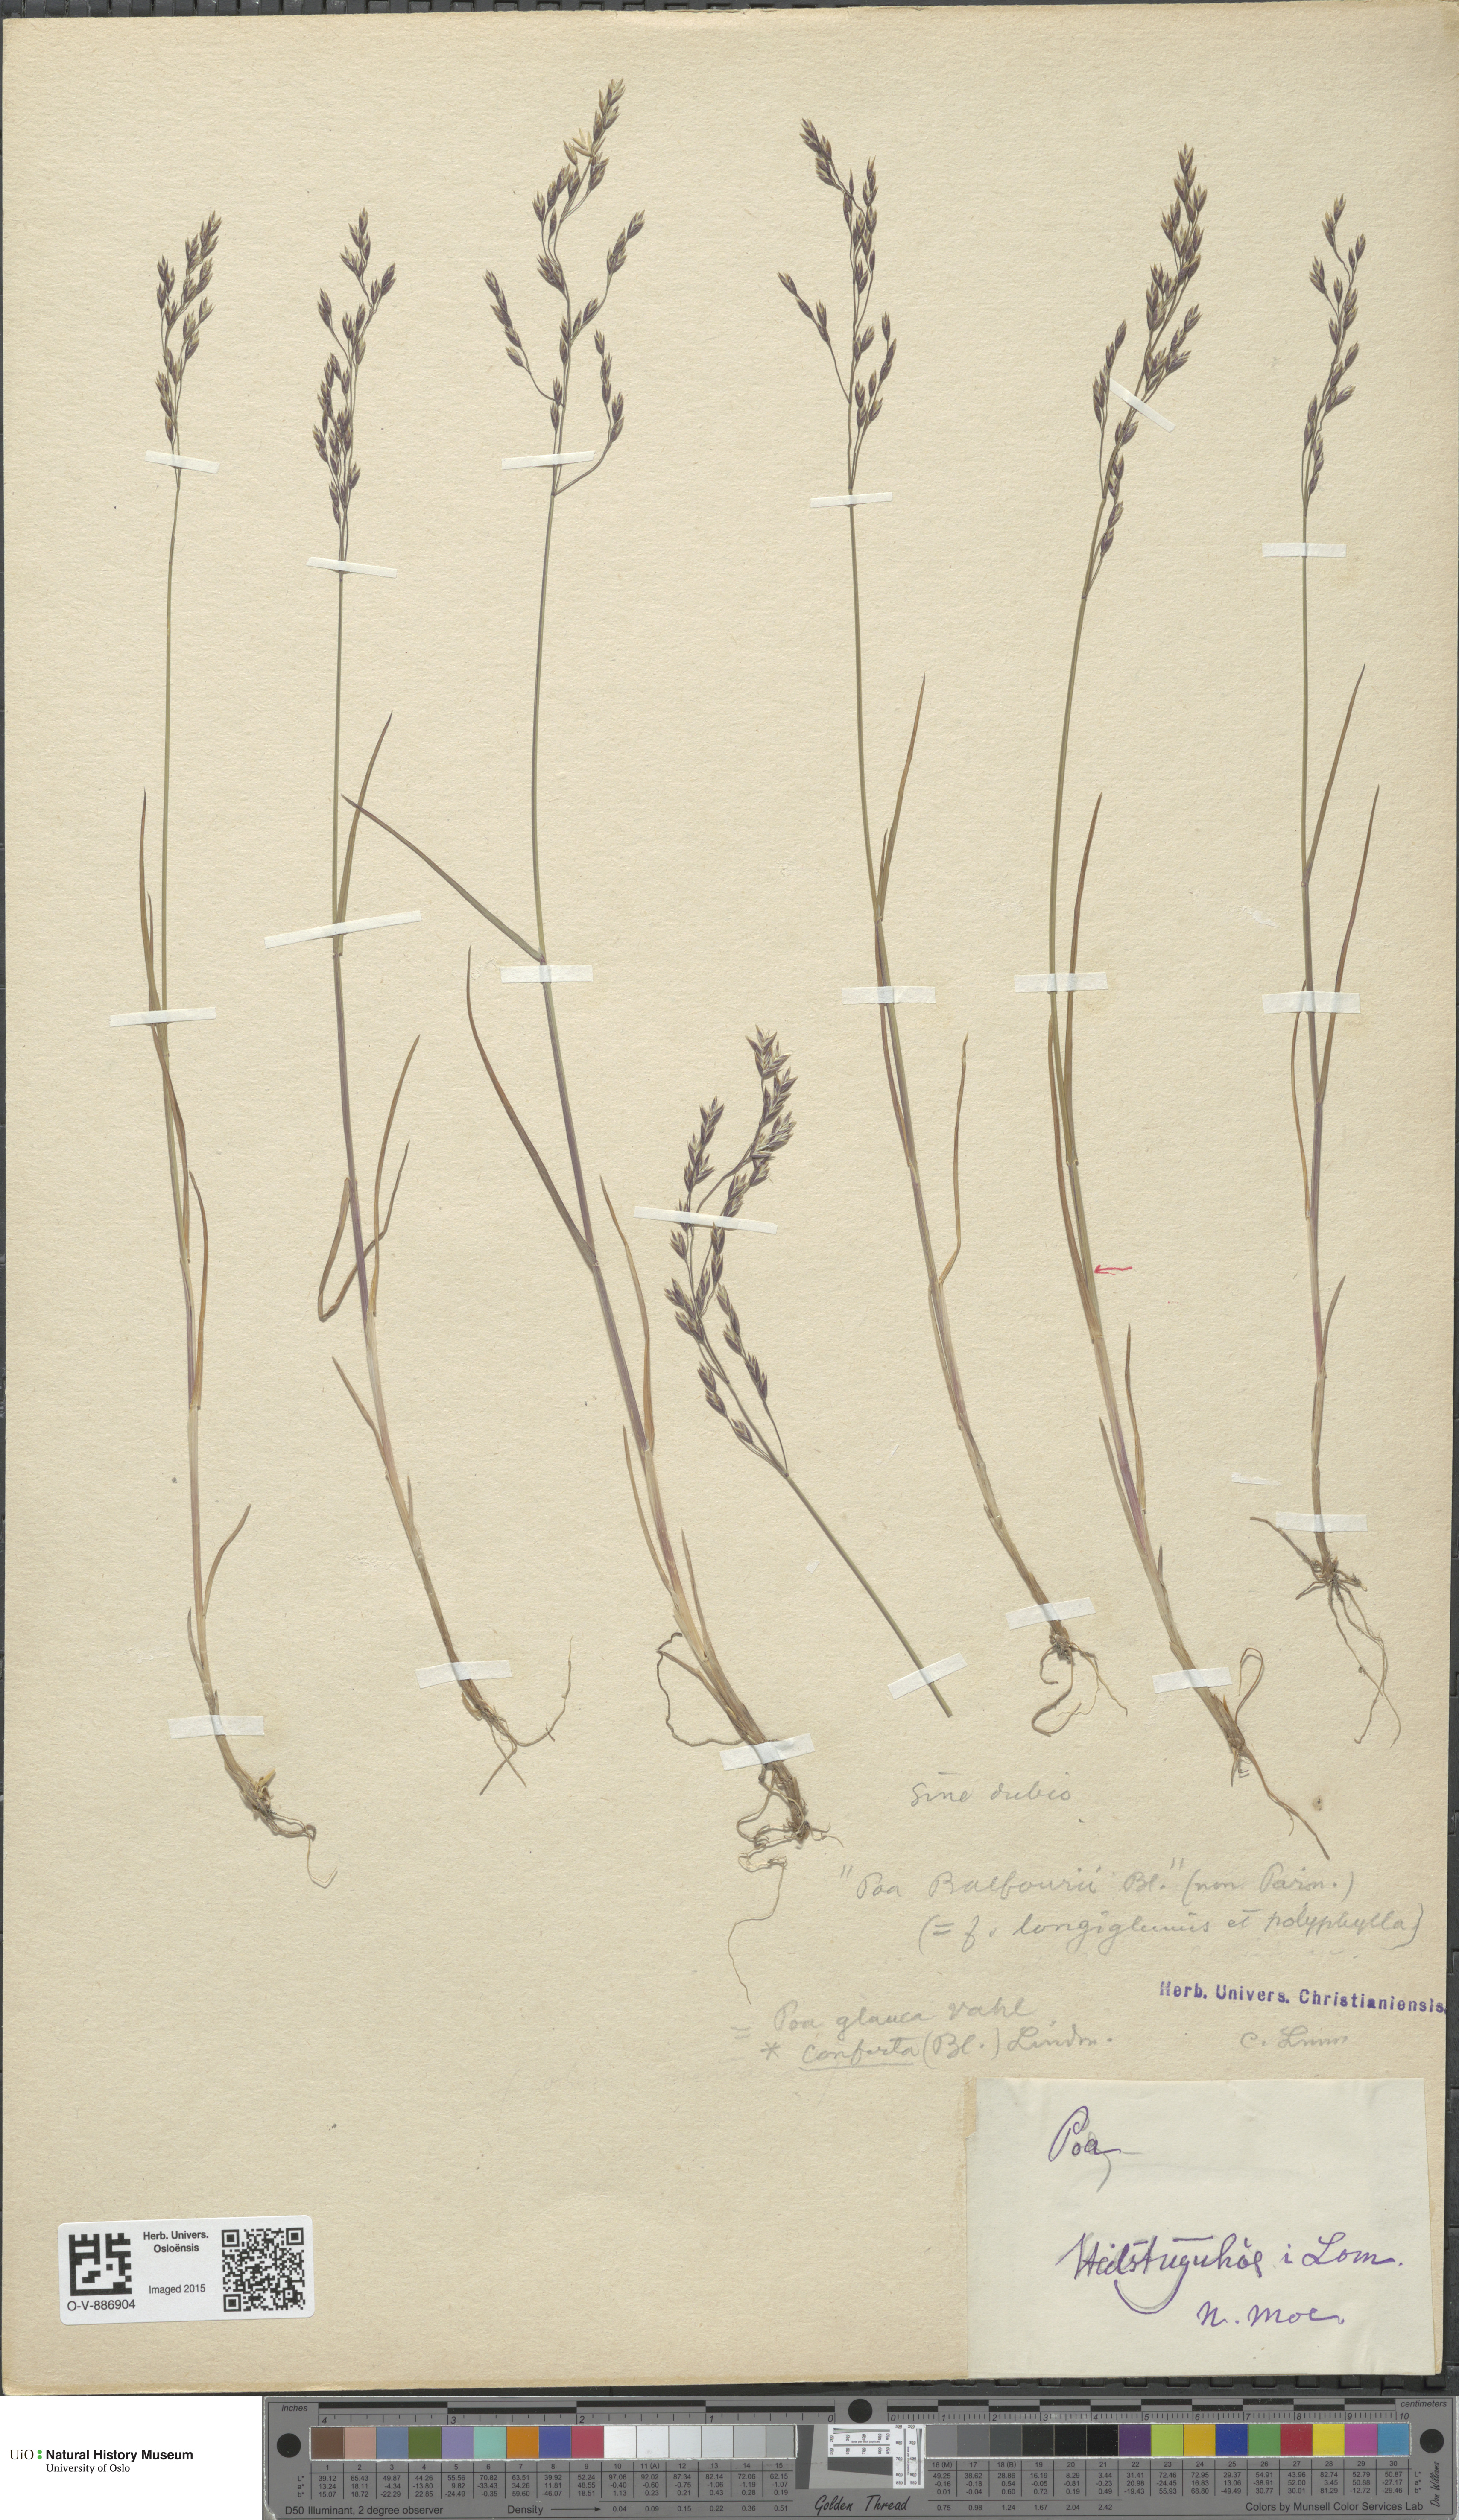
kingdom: Plantae
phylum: Tracheophyta
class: Liliopsida
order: Poales
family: Poaceae
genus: Poa
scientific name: Poa nemoralis
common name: Wood bluegrass
